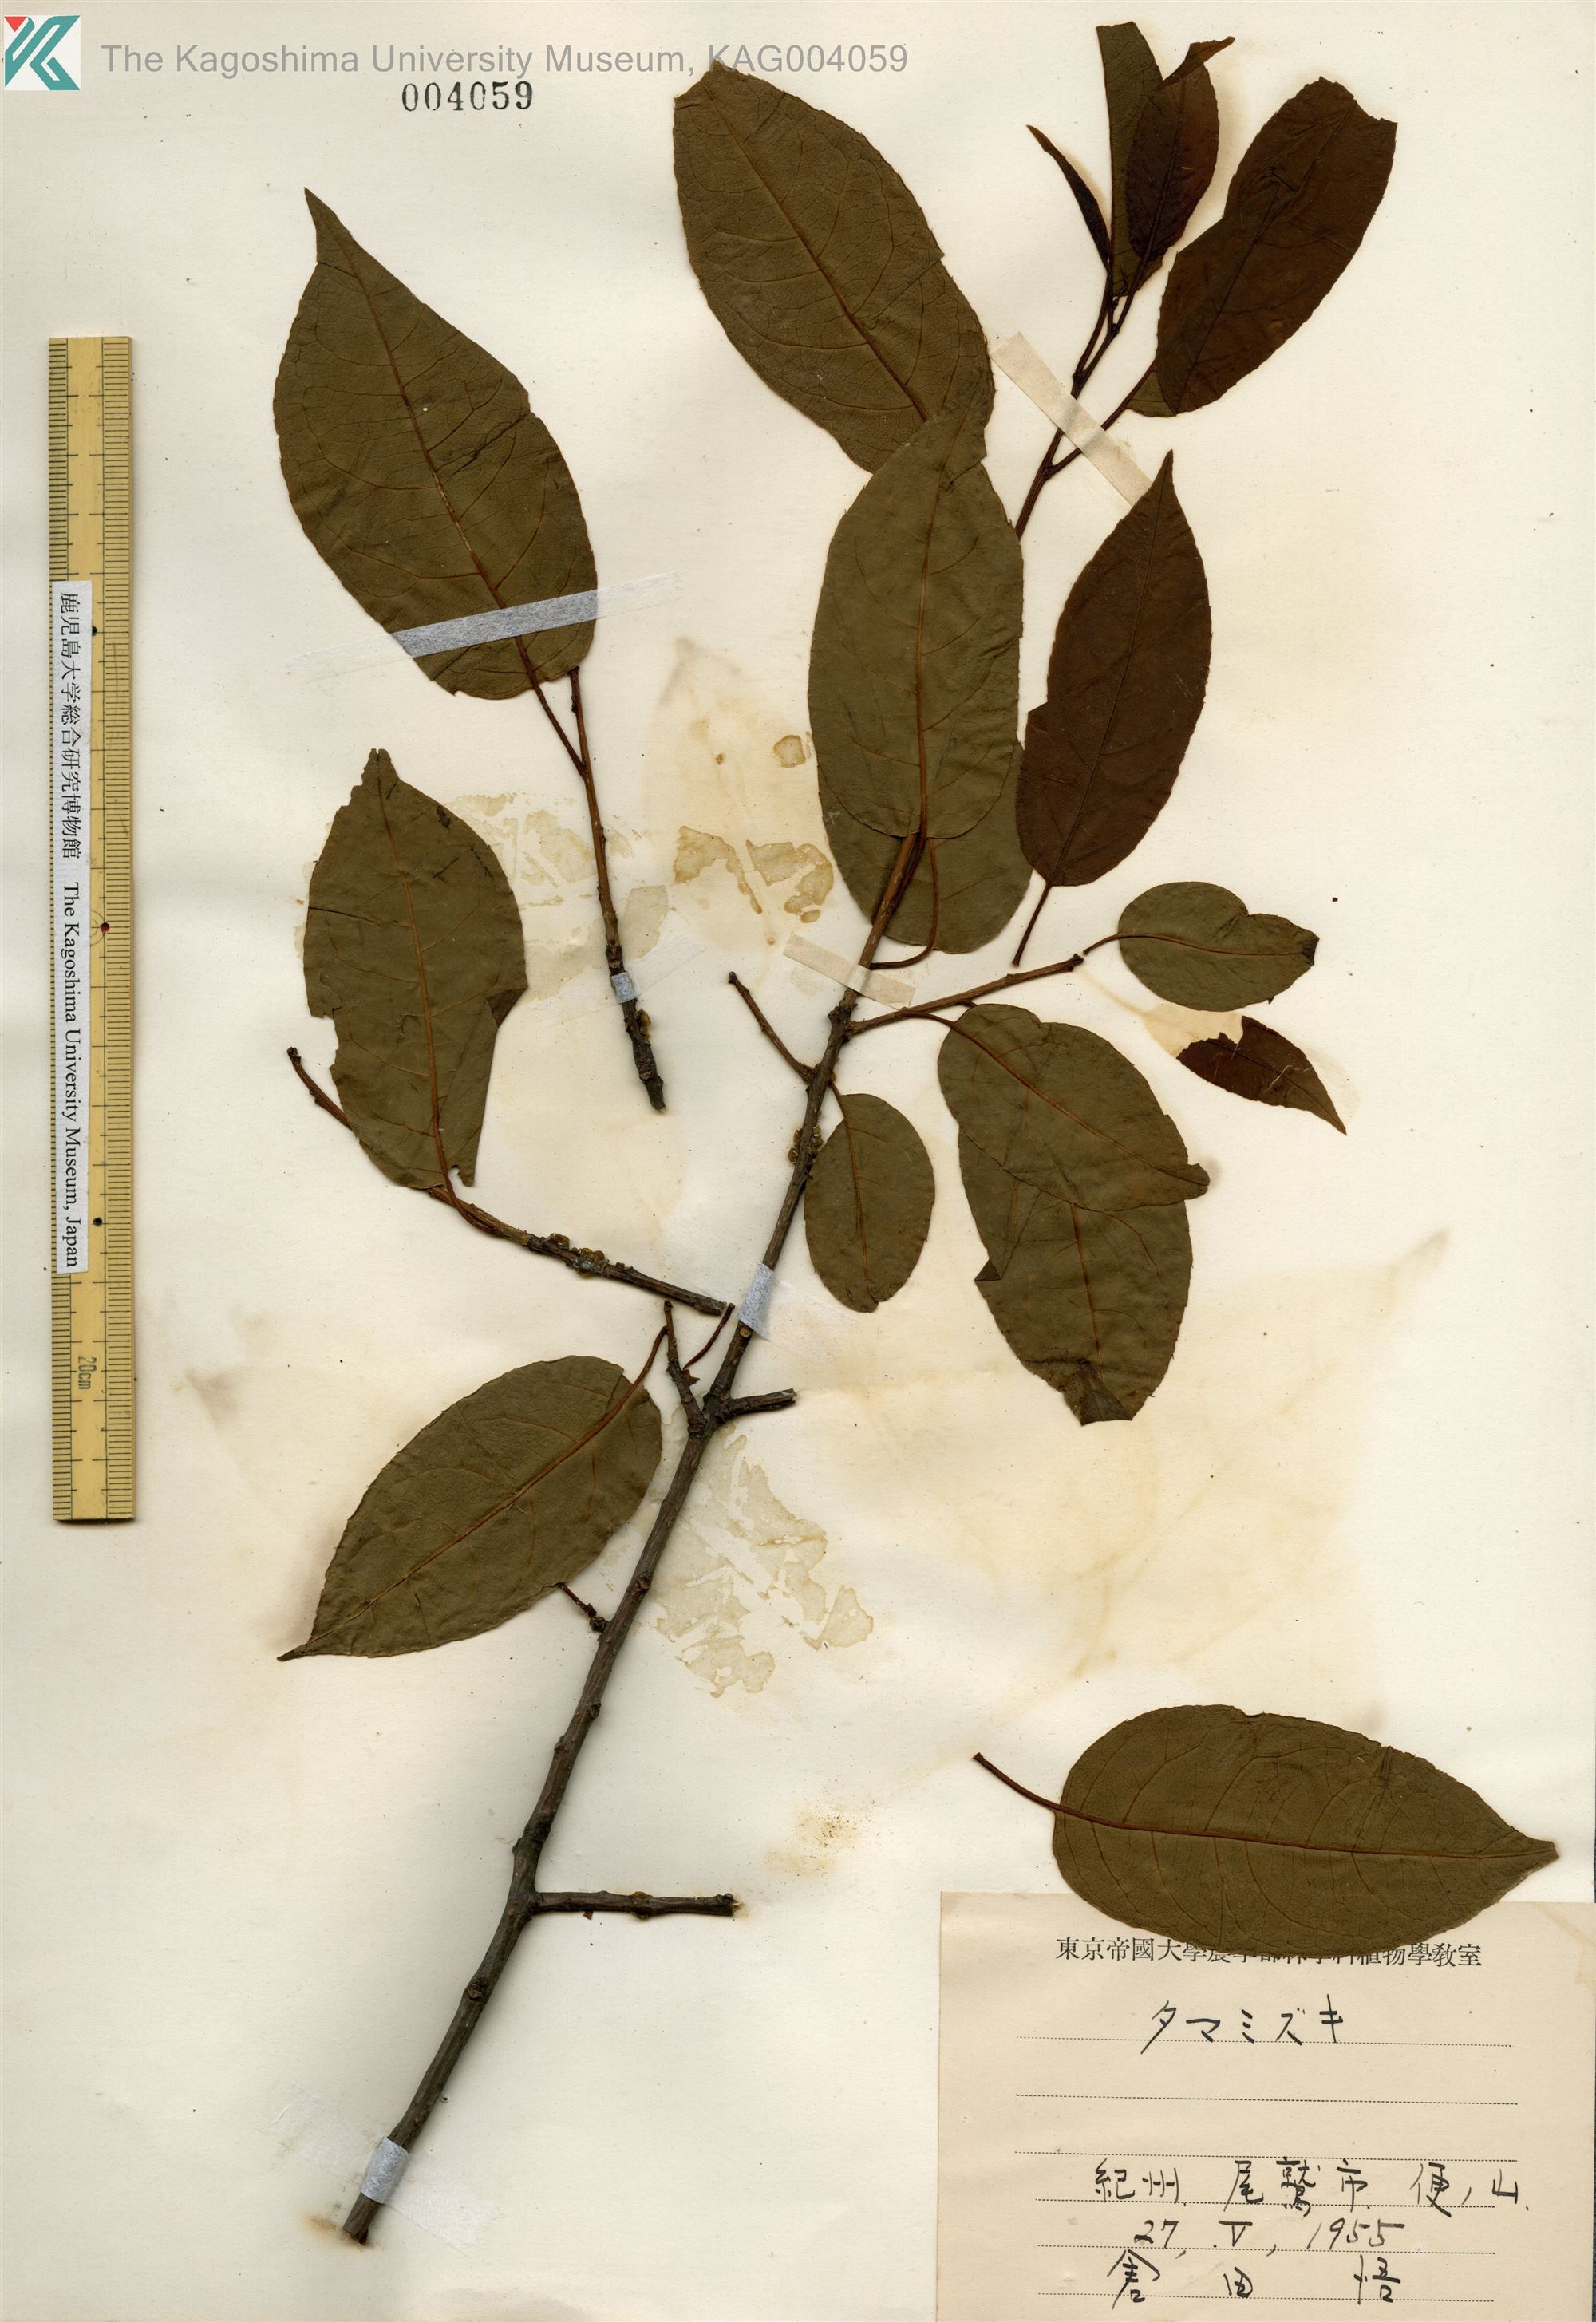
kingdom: Plantae
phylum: Tracheophyta
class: Magnoliopsida
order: Aquifoliales
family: Aquifoliaceae
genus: Ilex
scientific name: Ilex rotunda
